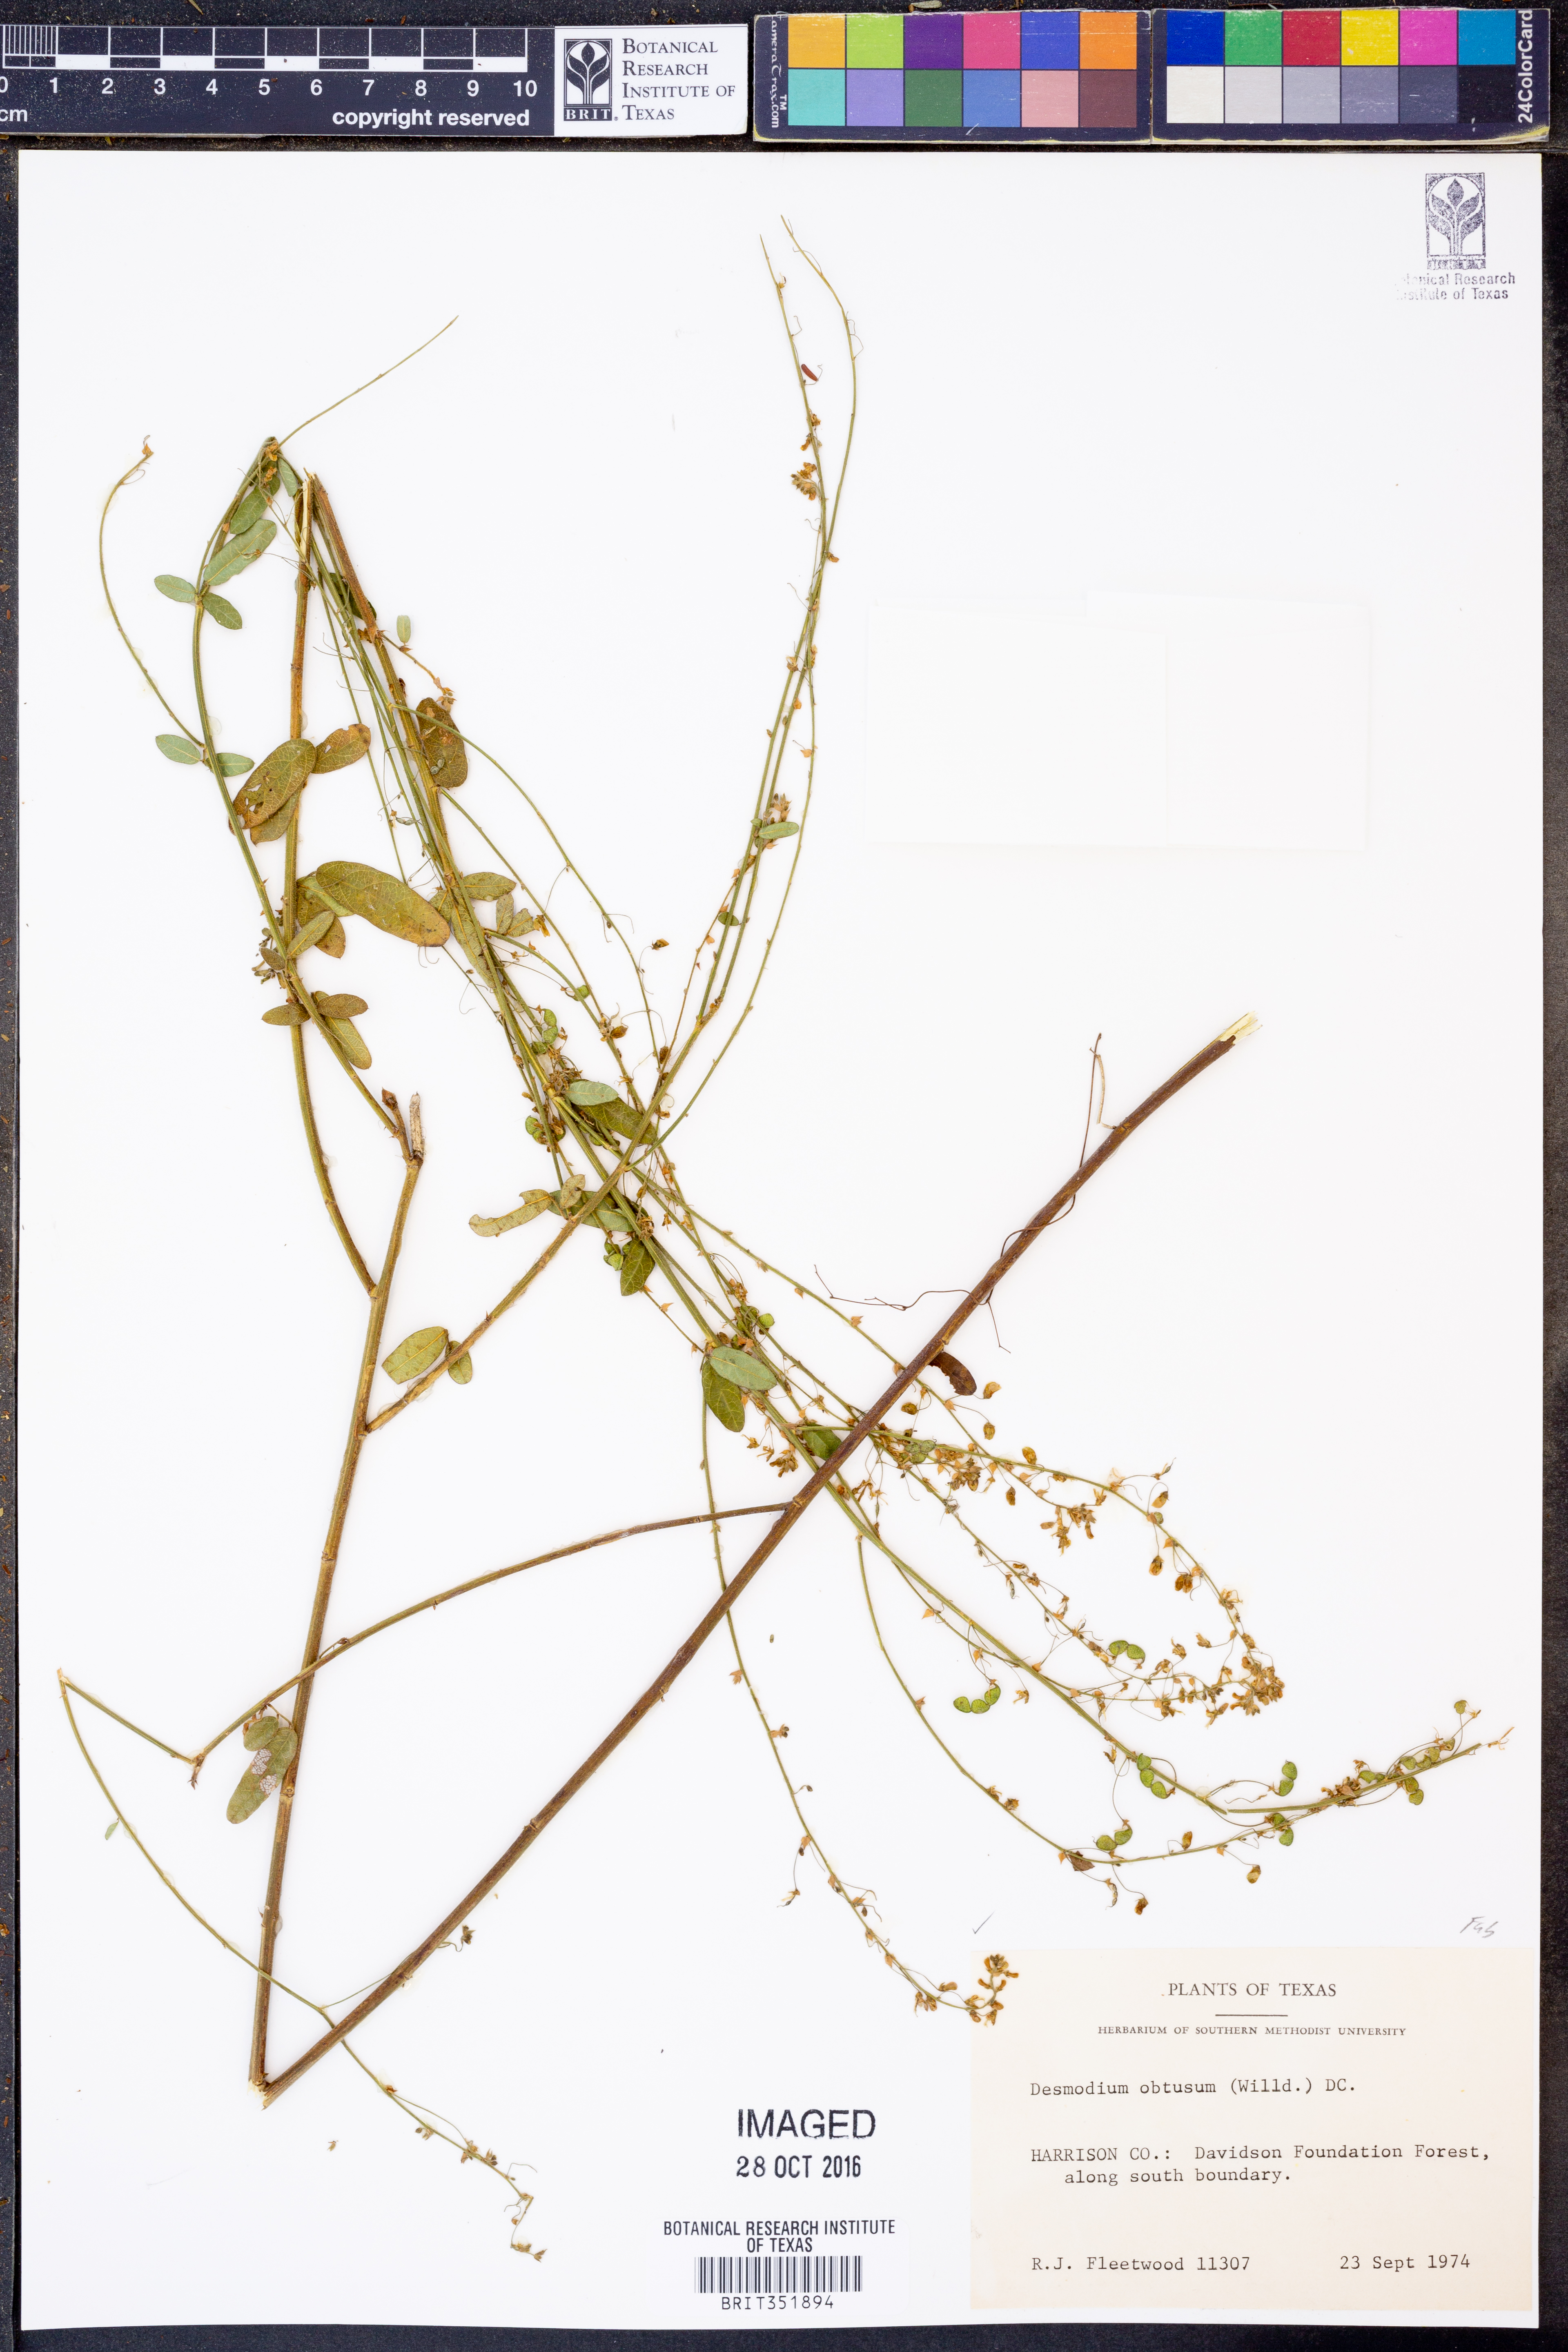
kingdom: Plantae
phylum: Tracheophyta
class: Magnoliopsida
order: Fabales
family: Fabaceae
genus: Desmodium
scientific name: Desmodium obtusum
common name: Stiff tick trefoil
